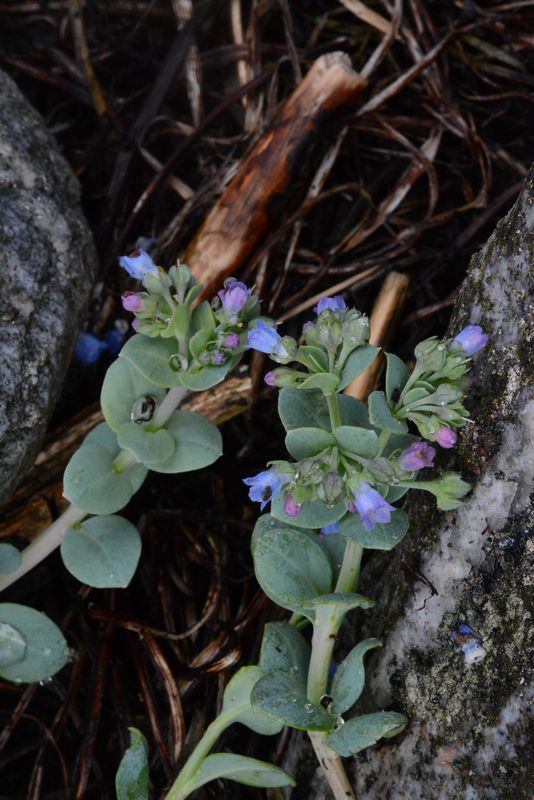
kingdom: Plantae
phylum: Tracheophyta
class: Magnoliopsida
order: Boraginales
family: Boraginaceae
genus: Mertensia
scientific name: Mertensia maritima
